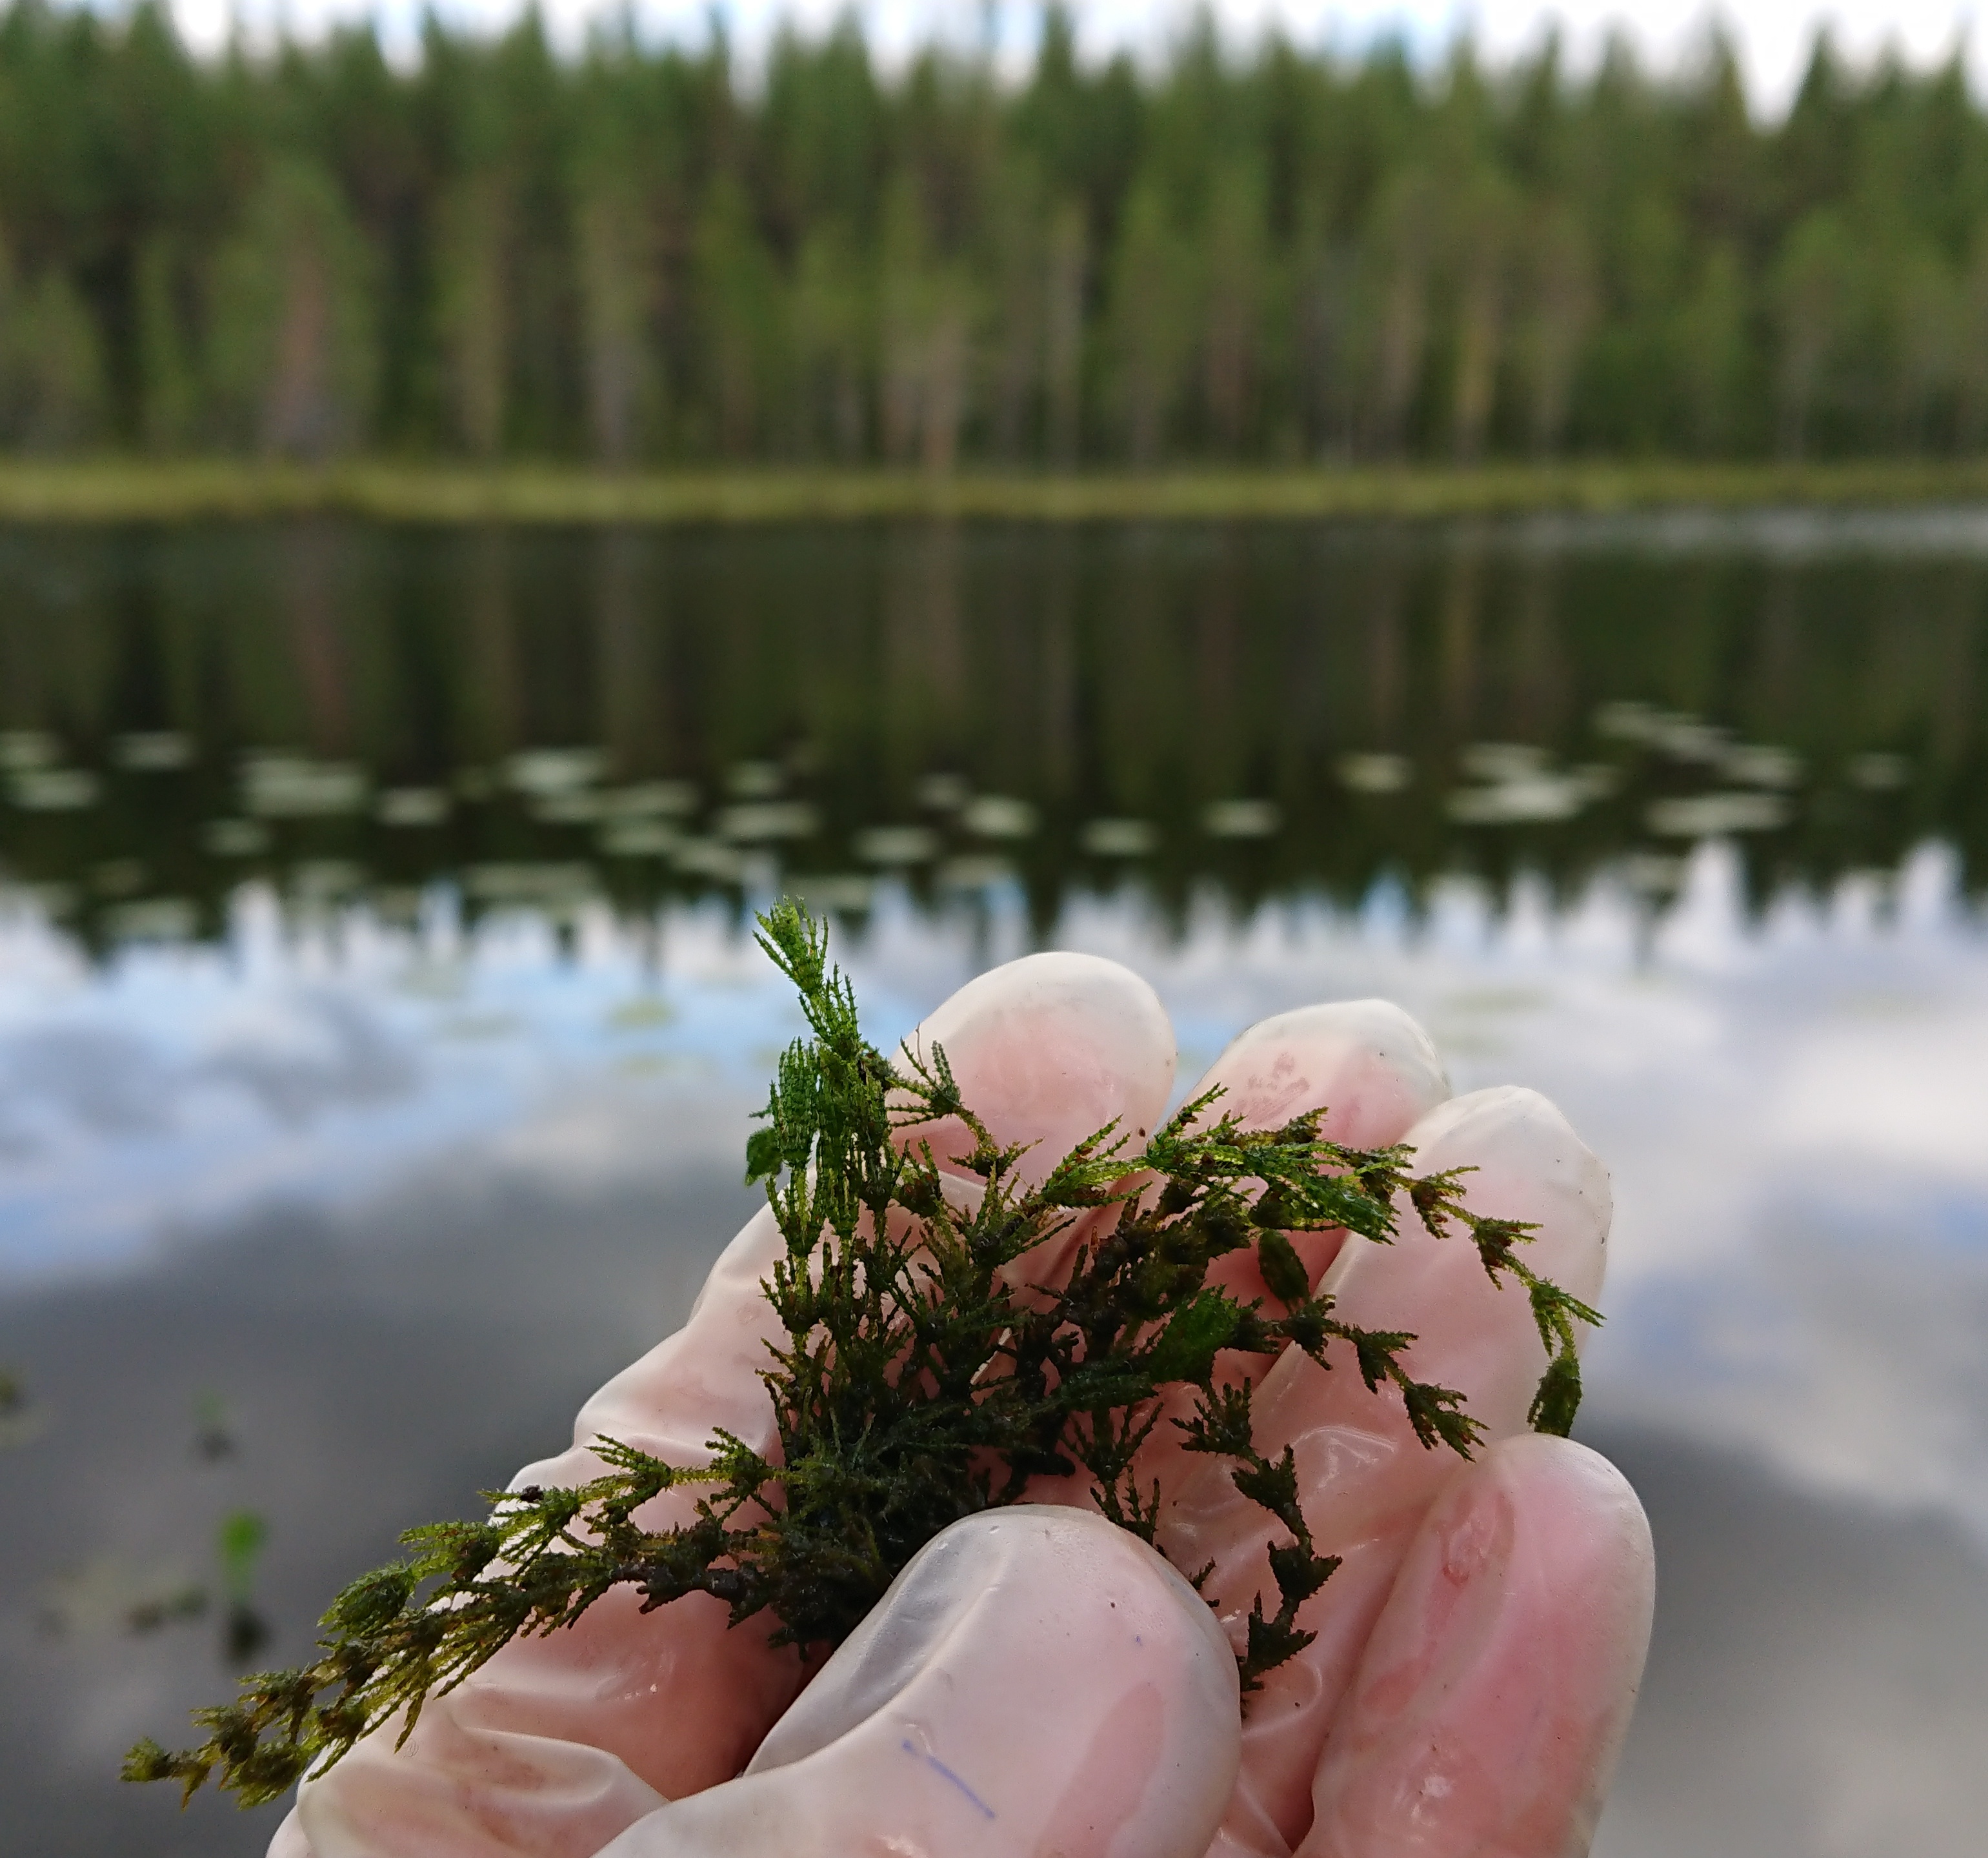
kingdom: Plantae
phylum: Charophyta
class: Charophyceae
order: Charales
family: Characeae
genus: Chara
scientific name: Chara aspera
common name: Rough stonewort
